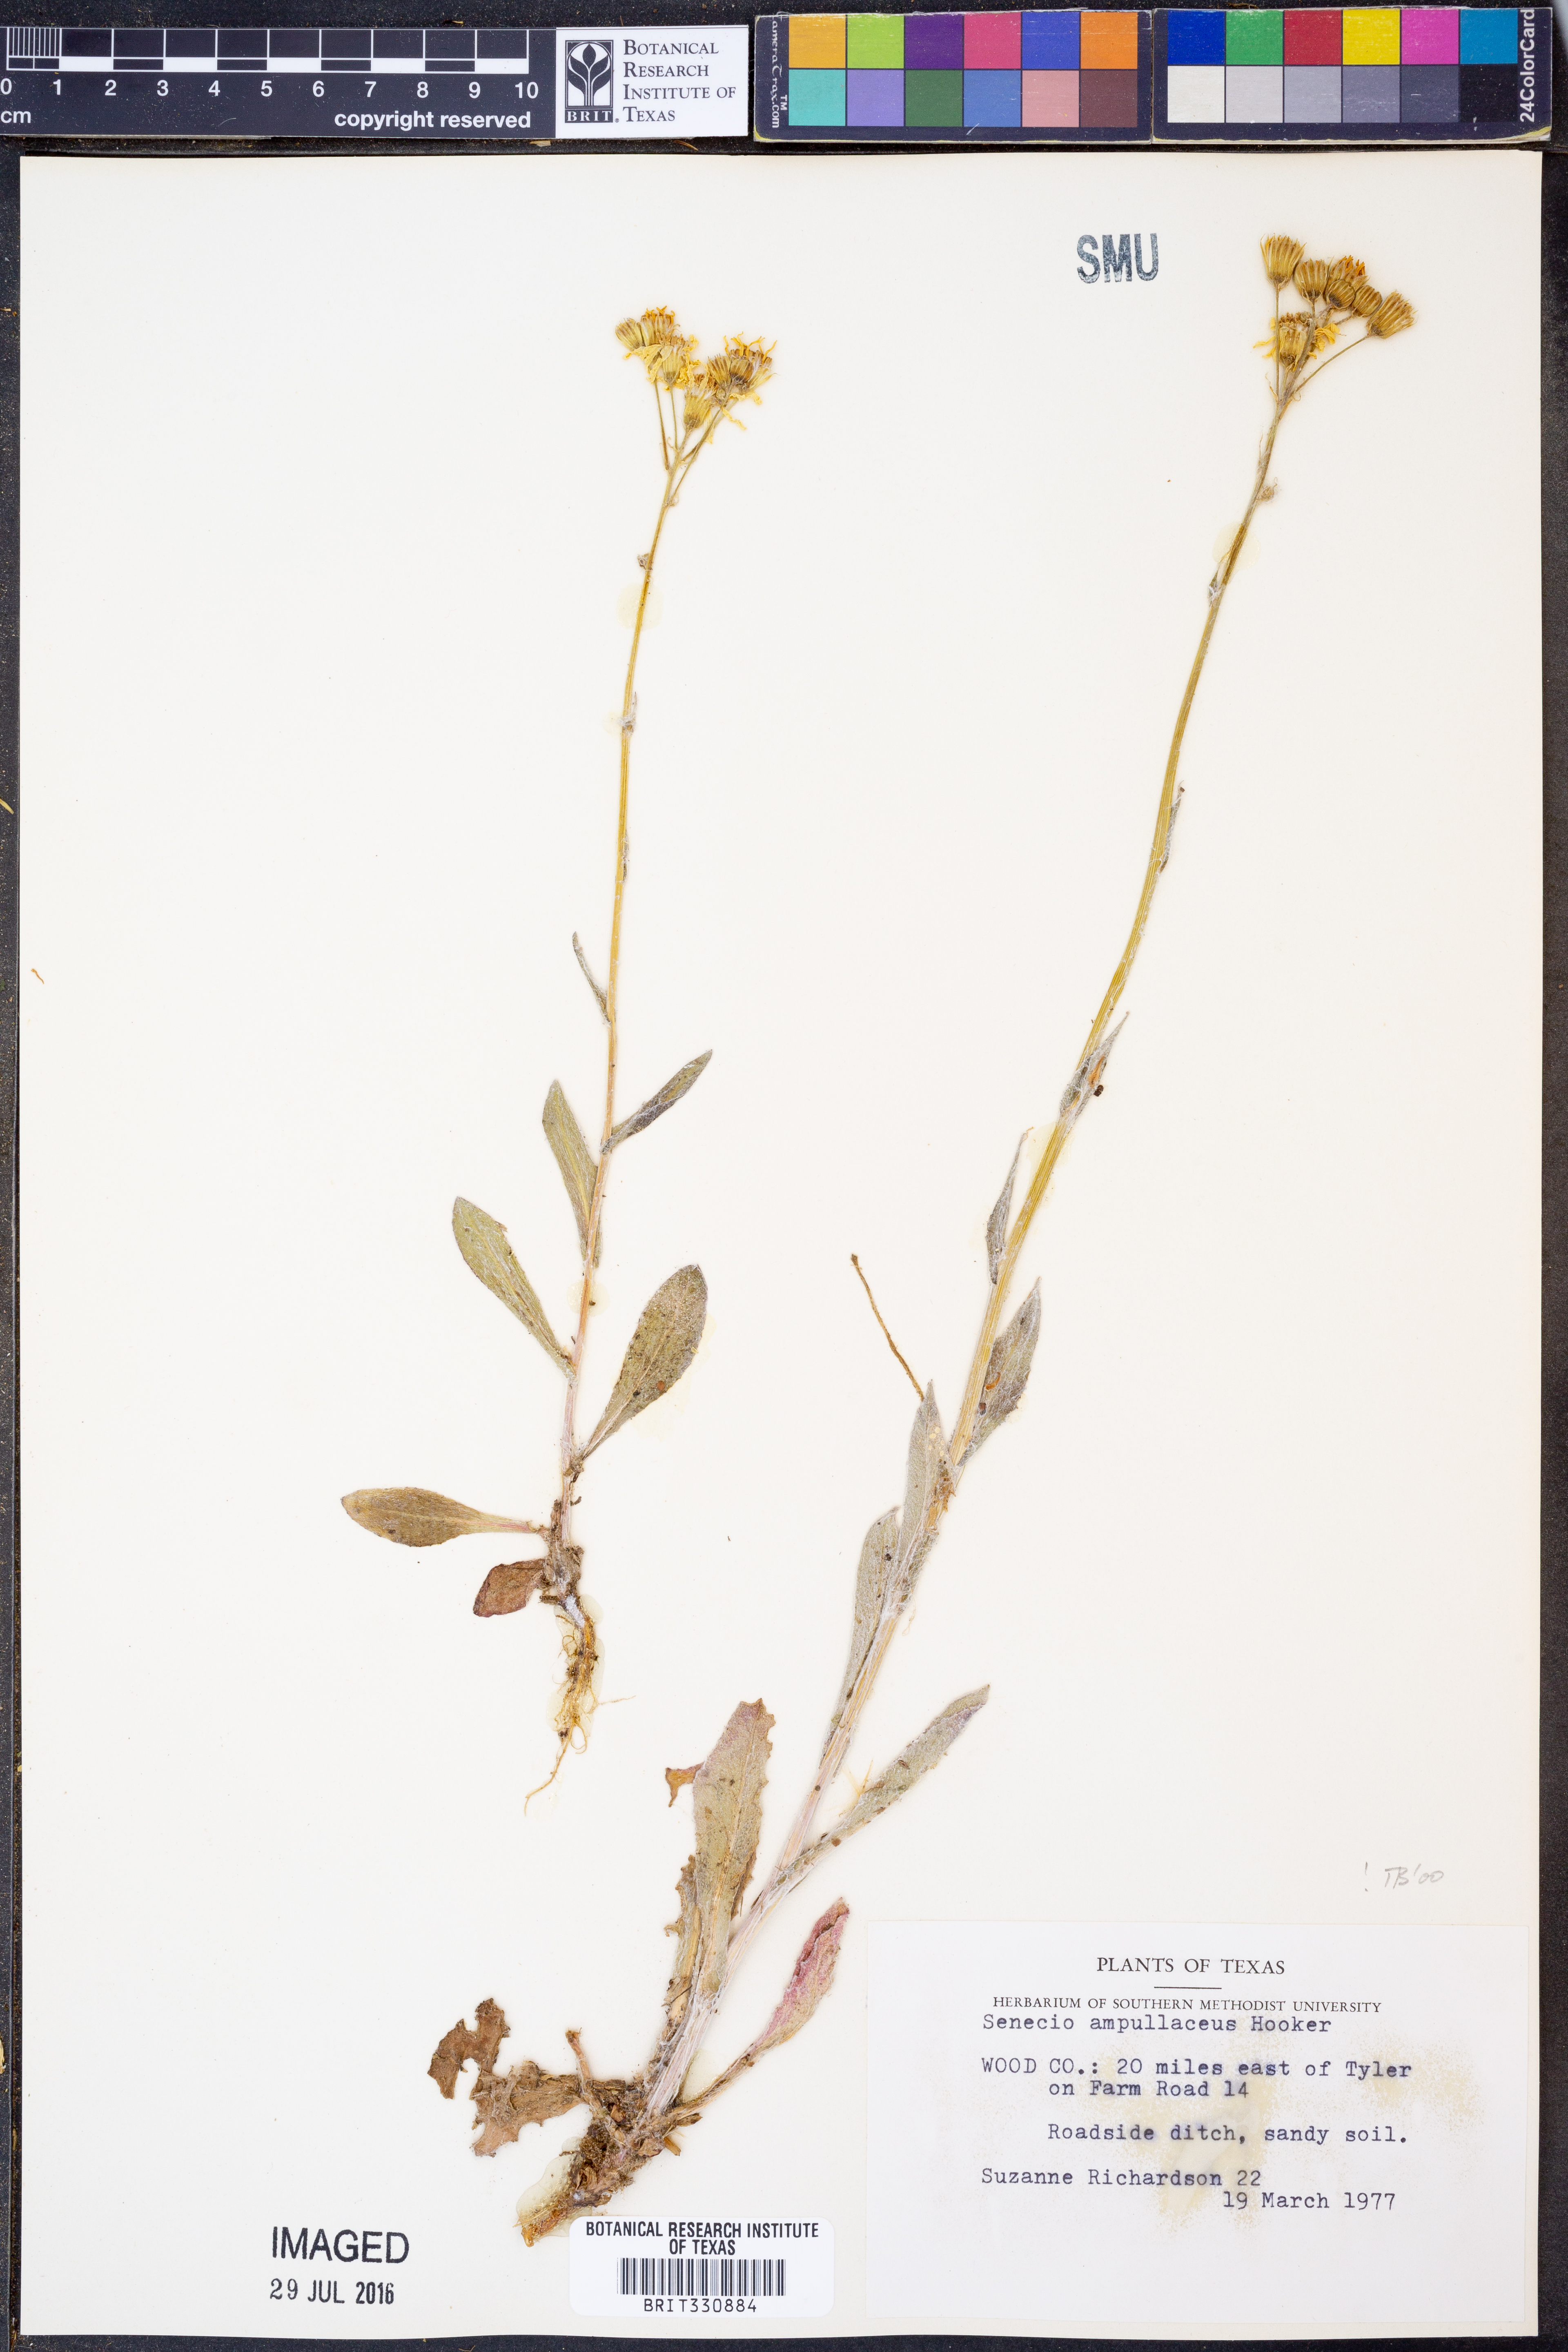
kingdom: Plantae
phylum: Tracheophyta
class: Magnoliopsida
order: Asterales
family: Asteraceae
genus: Senecio
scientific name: Senecio ampullaceus
